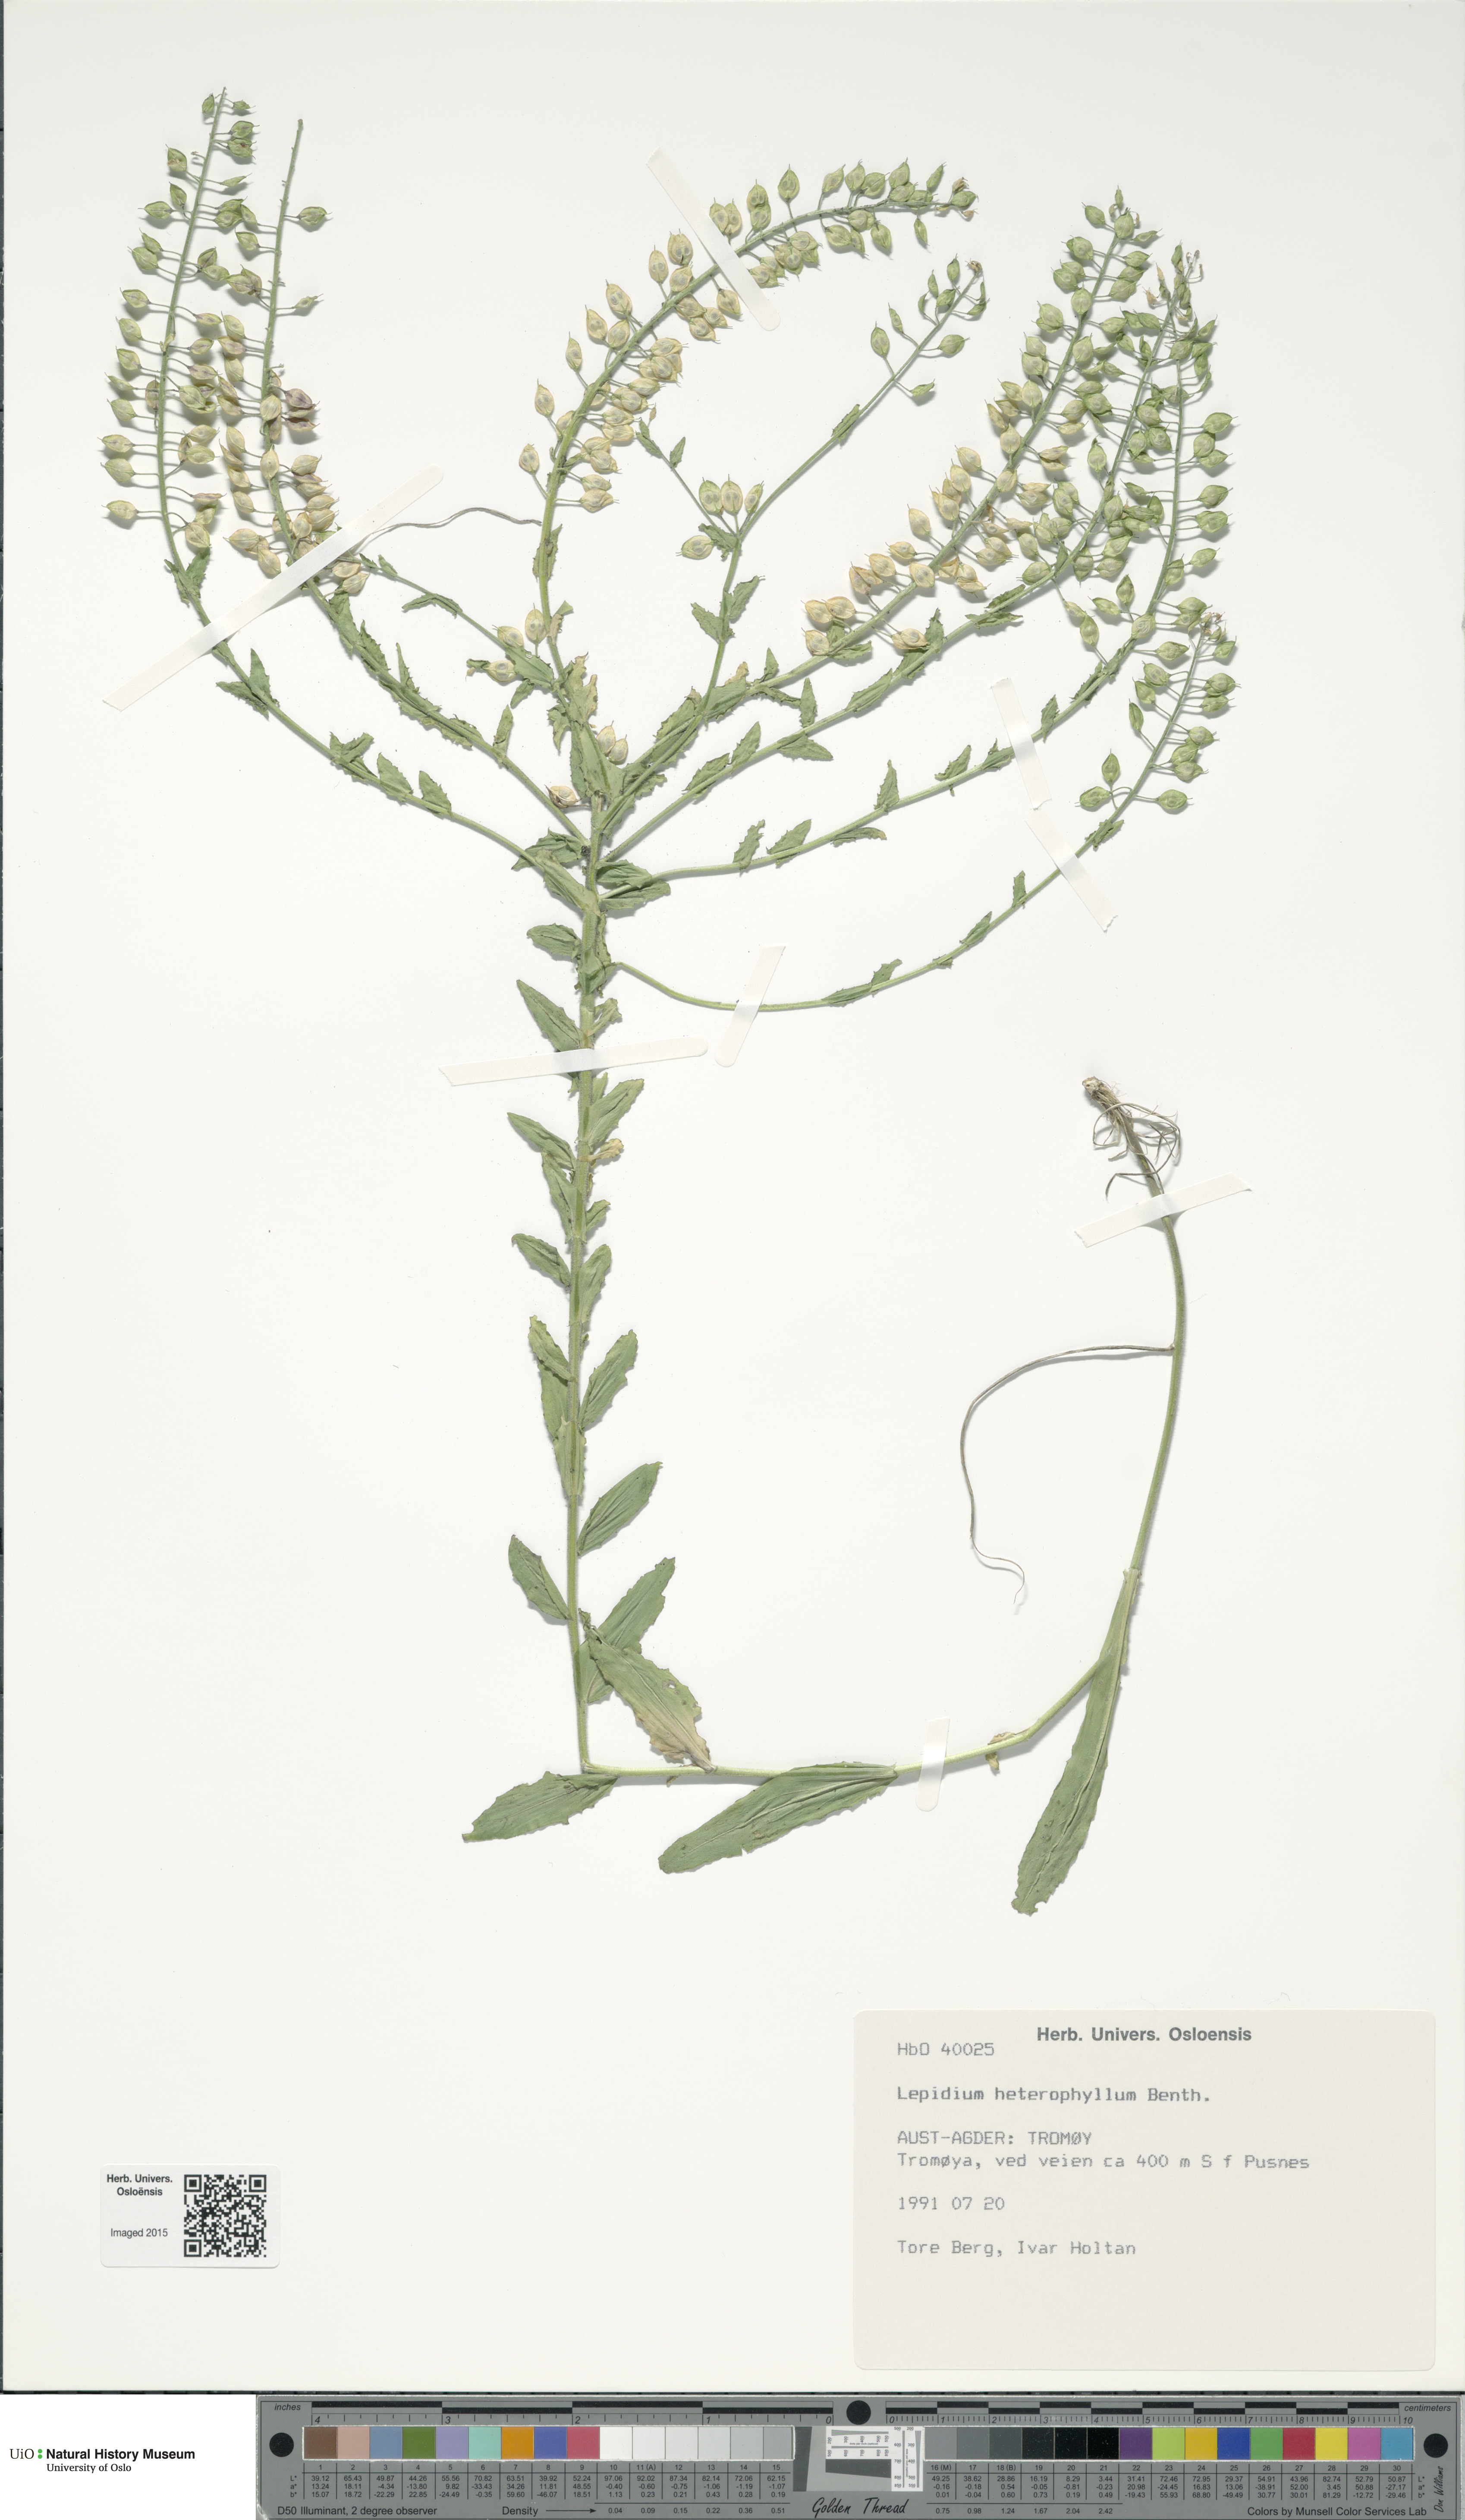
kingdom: Plantae
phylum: Tracheophyta
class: Magnoliopsida
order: Brassicales
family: Brassicaceae
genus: Lepidium
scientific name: Lepidium heterophyllum
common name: Smith's pepperwort
